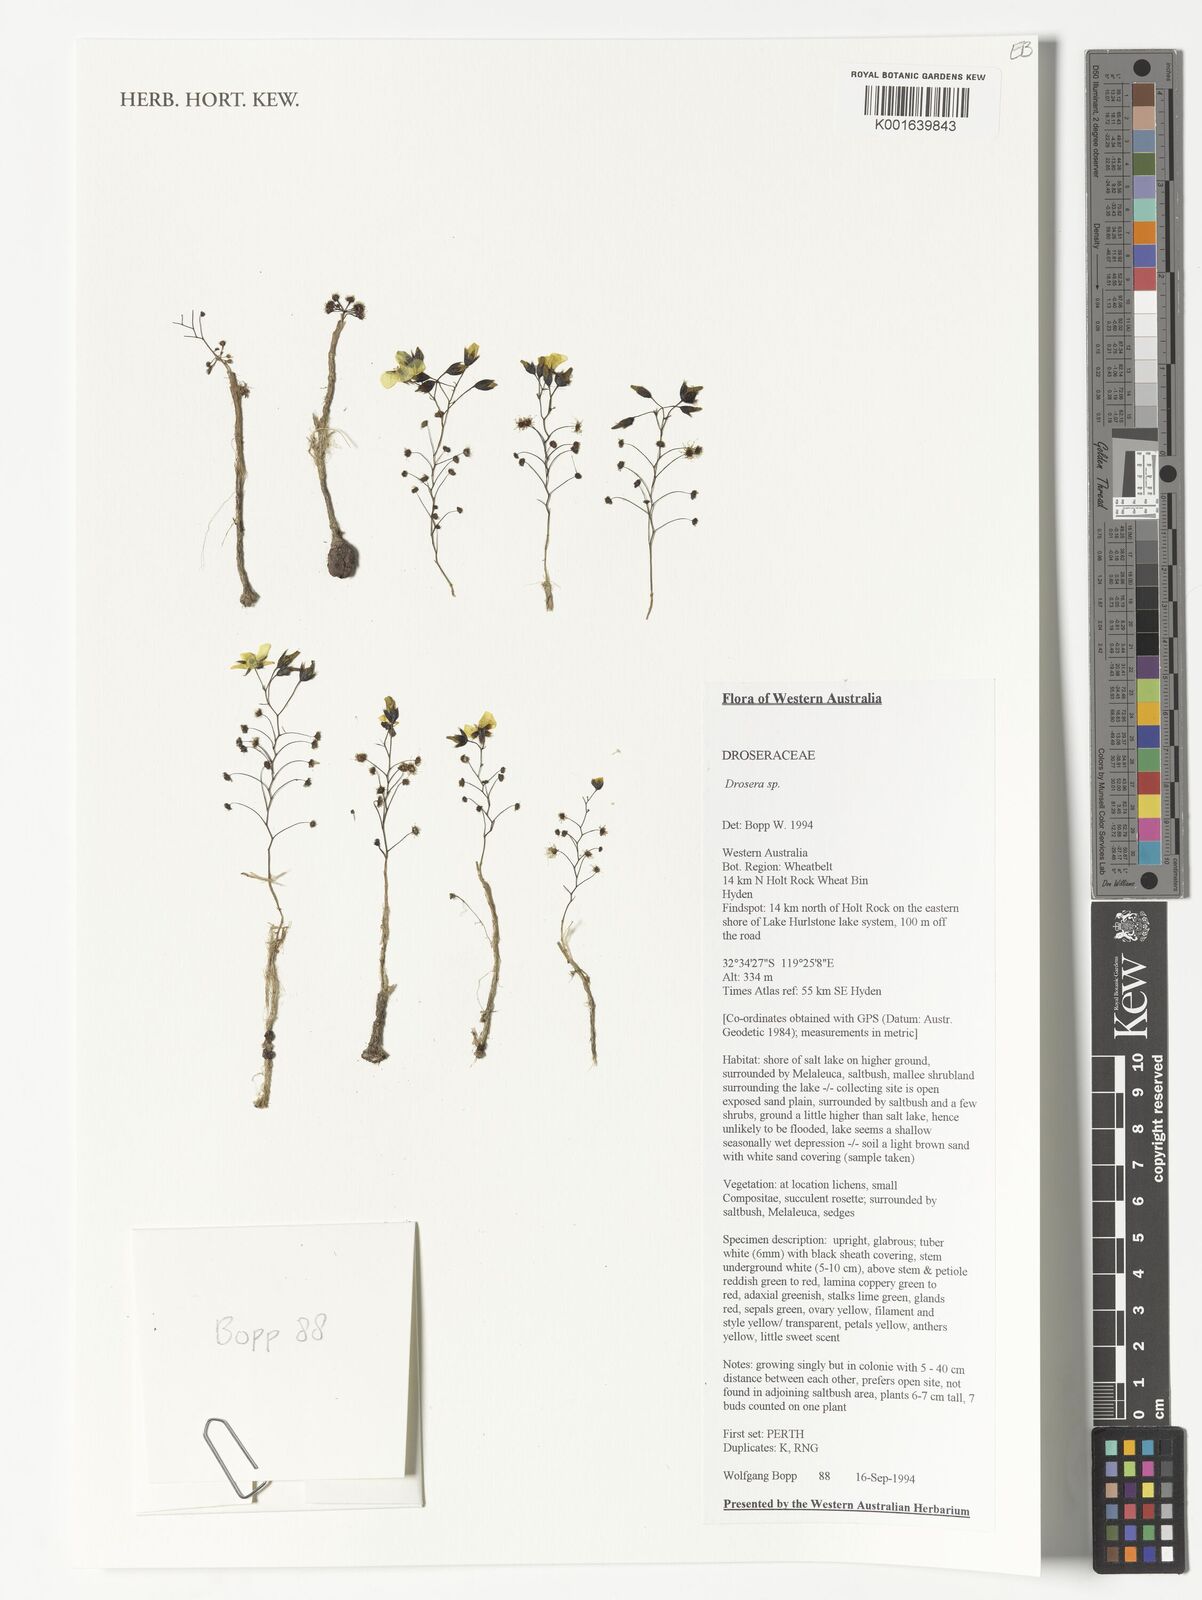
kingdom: Plantae
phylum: Tracheophyta
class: Magnoliopsida
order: Caryophyllales
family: Droseraceae
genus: Drosera
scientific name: Drosera
